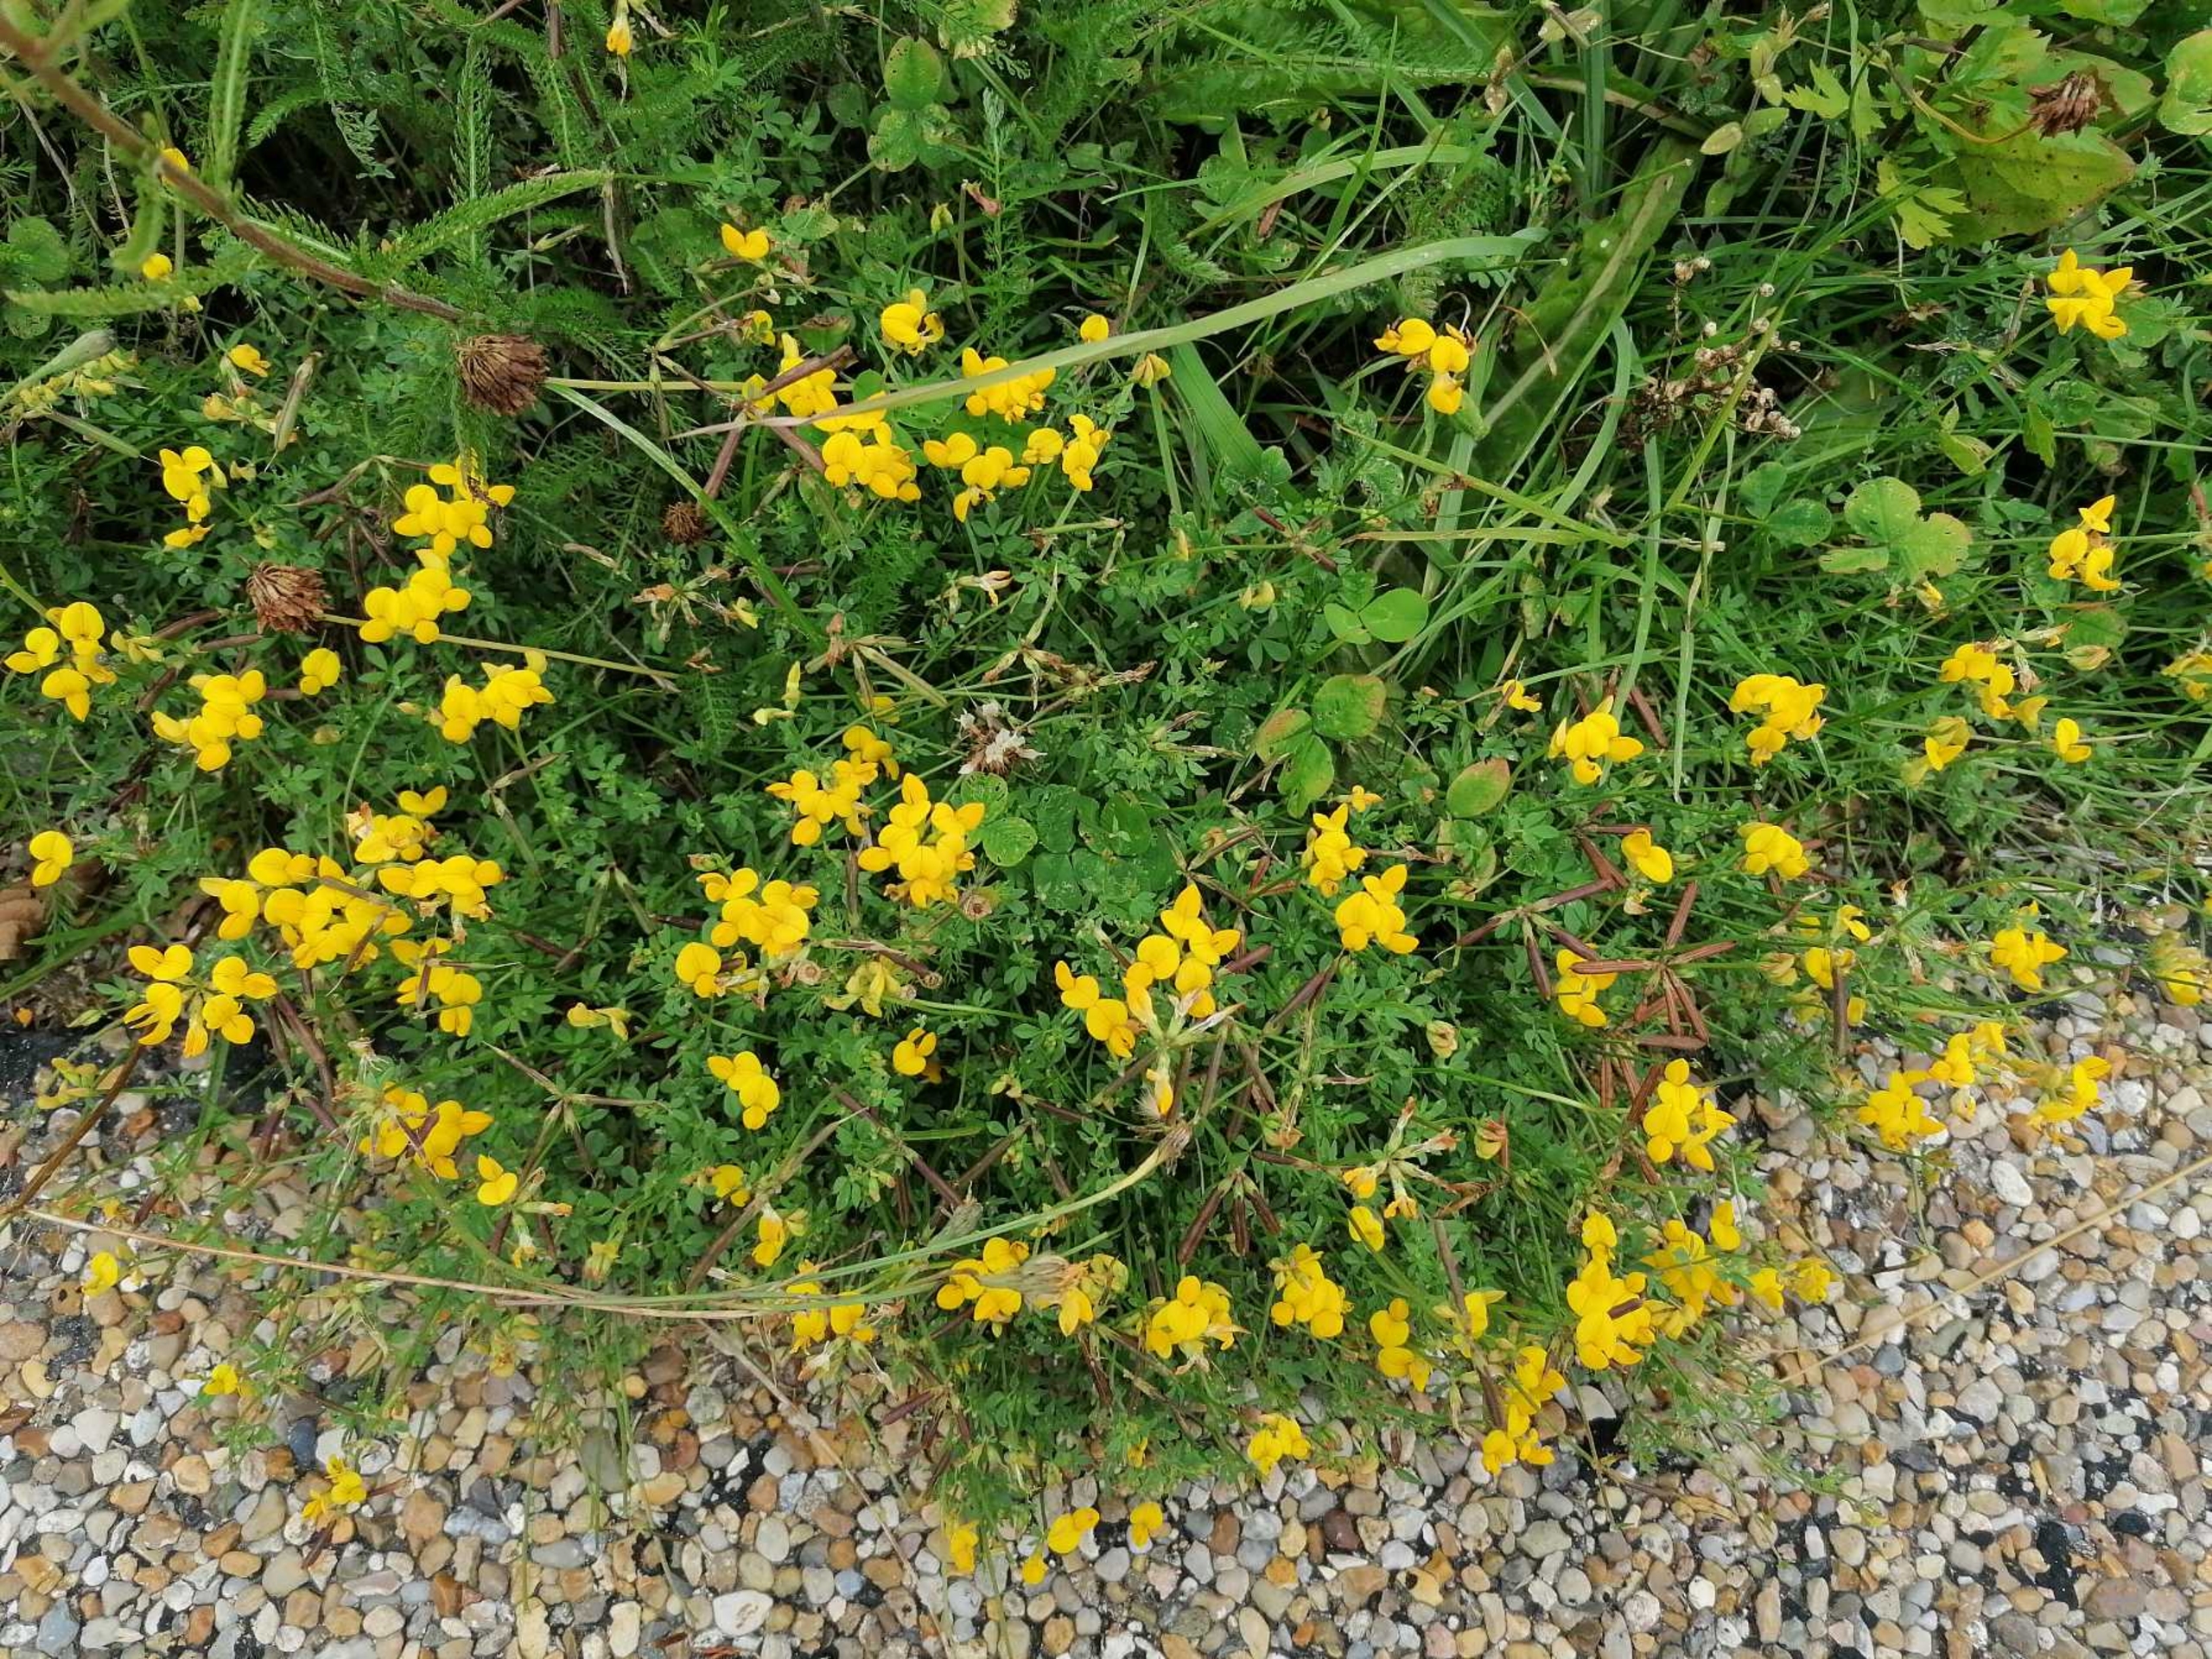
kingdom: Plantae
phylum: Tracheophyta
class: Magnoliopsida
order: Fabales
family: Fabaceae
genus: Lotus
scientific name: Lotus corniculatus
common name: Almindelig kællingetand
